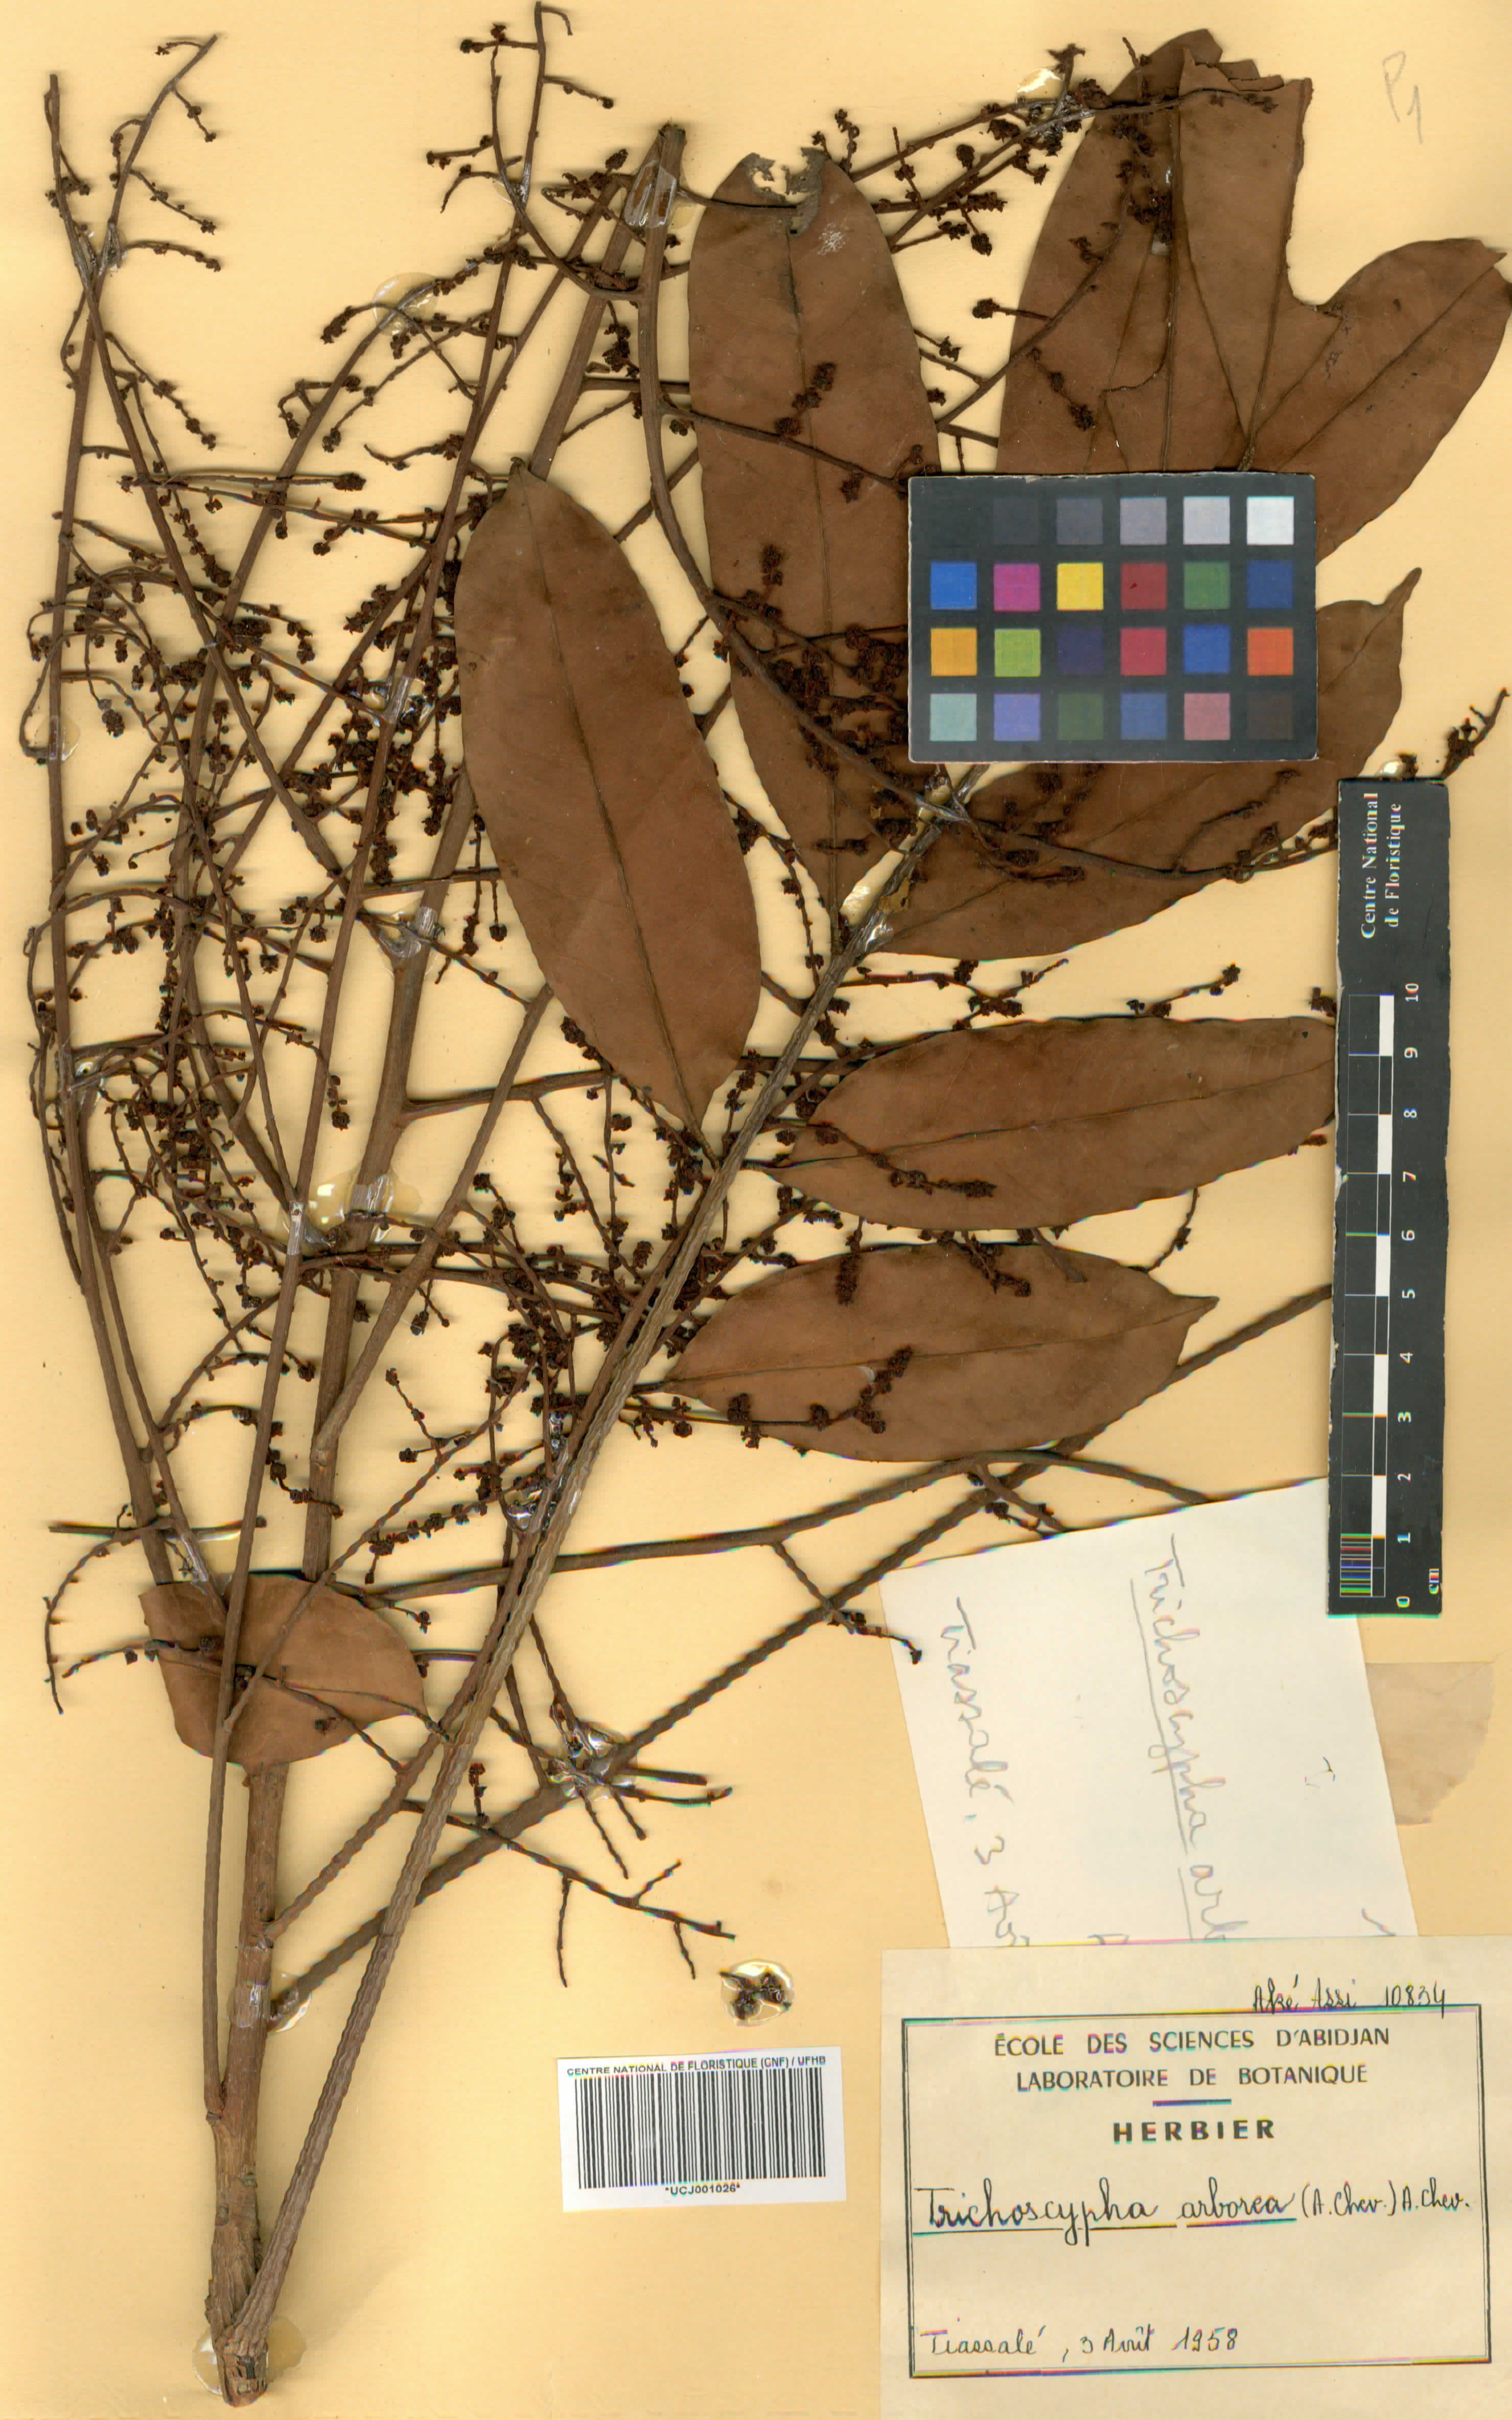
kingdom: Plantae
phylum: Tracheophyta
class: Magnoliopsida
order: Sapindales
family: Anacardiaceae
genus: Trichoscypha
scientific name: Trichoscypha arborea
